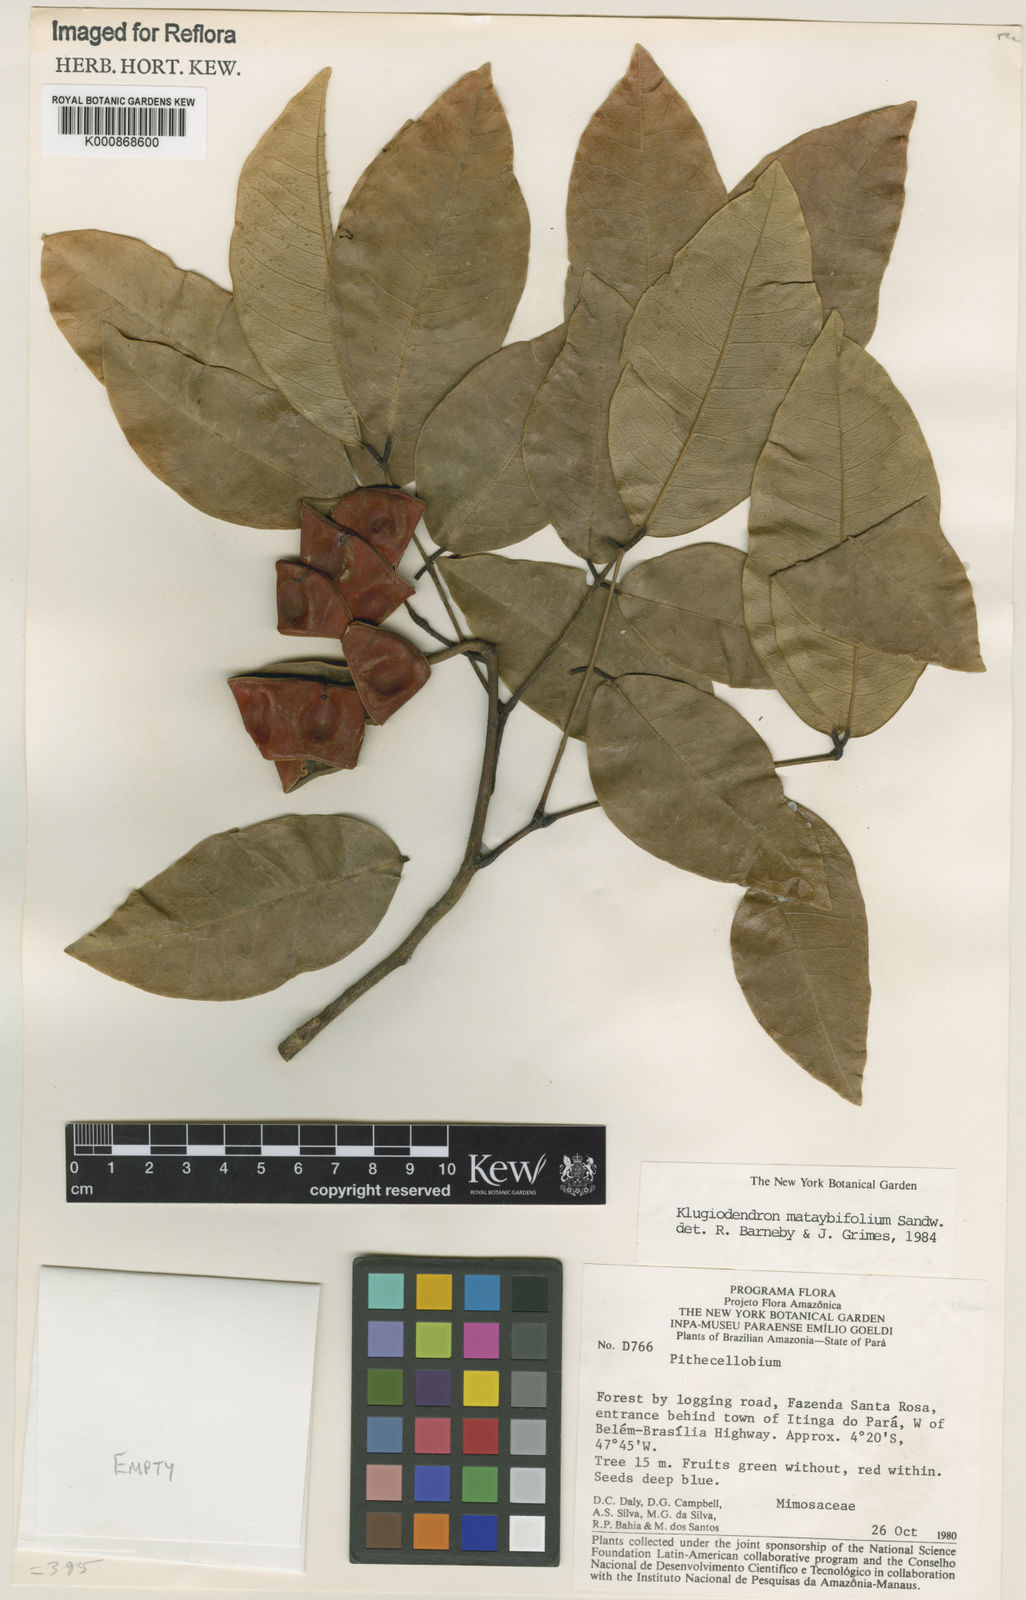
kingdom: Plantae
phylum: Tracheophyta
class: Magnoliopsida
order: Fabales
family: Fabaceae
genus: Jupunba
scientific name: Jupunba mataybifolia
